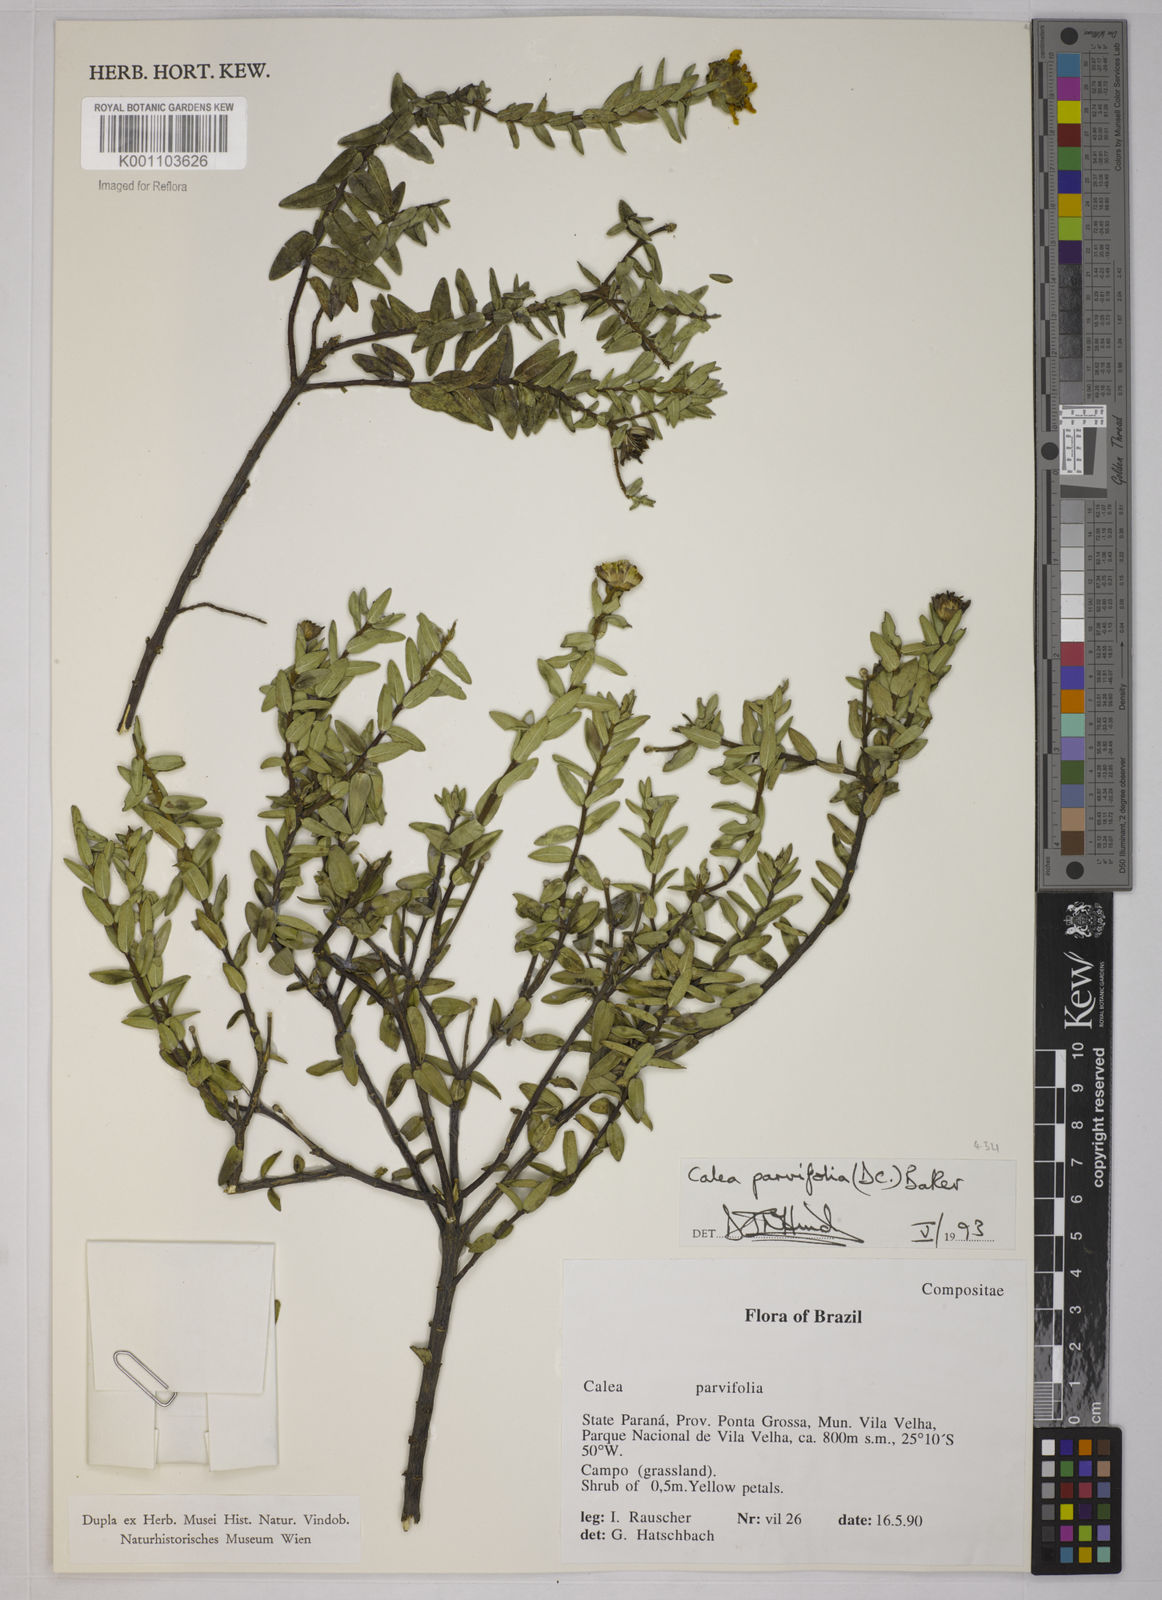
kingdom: Plantae
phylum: Tracheophyta
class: Magnoliopsida
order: Asterales
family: Asteraceae
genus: Calea
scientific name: Calea parvifolia
